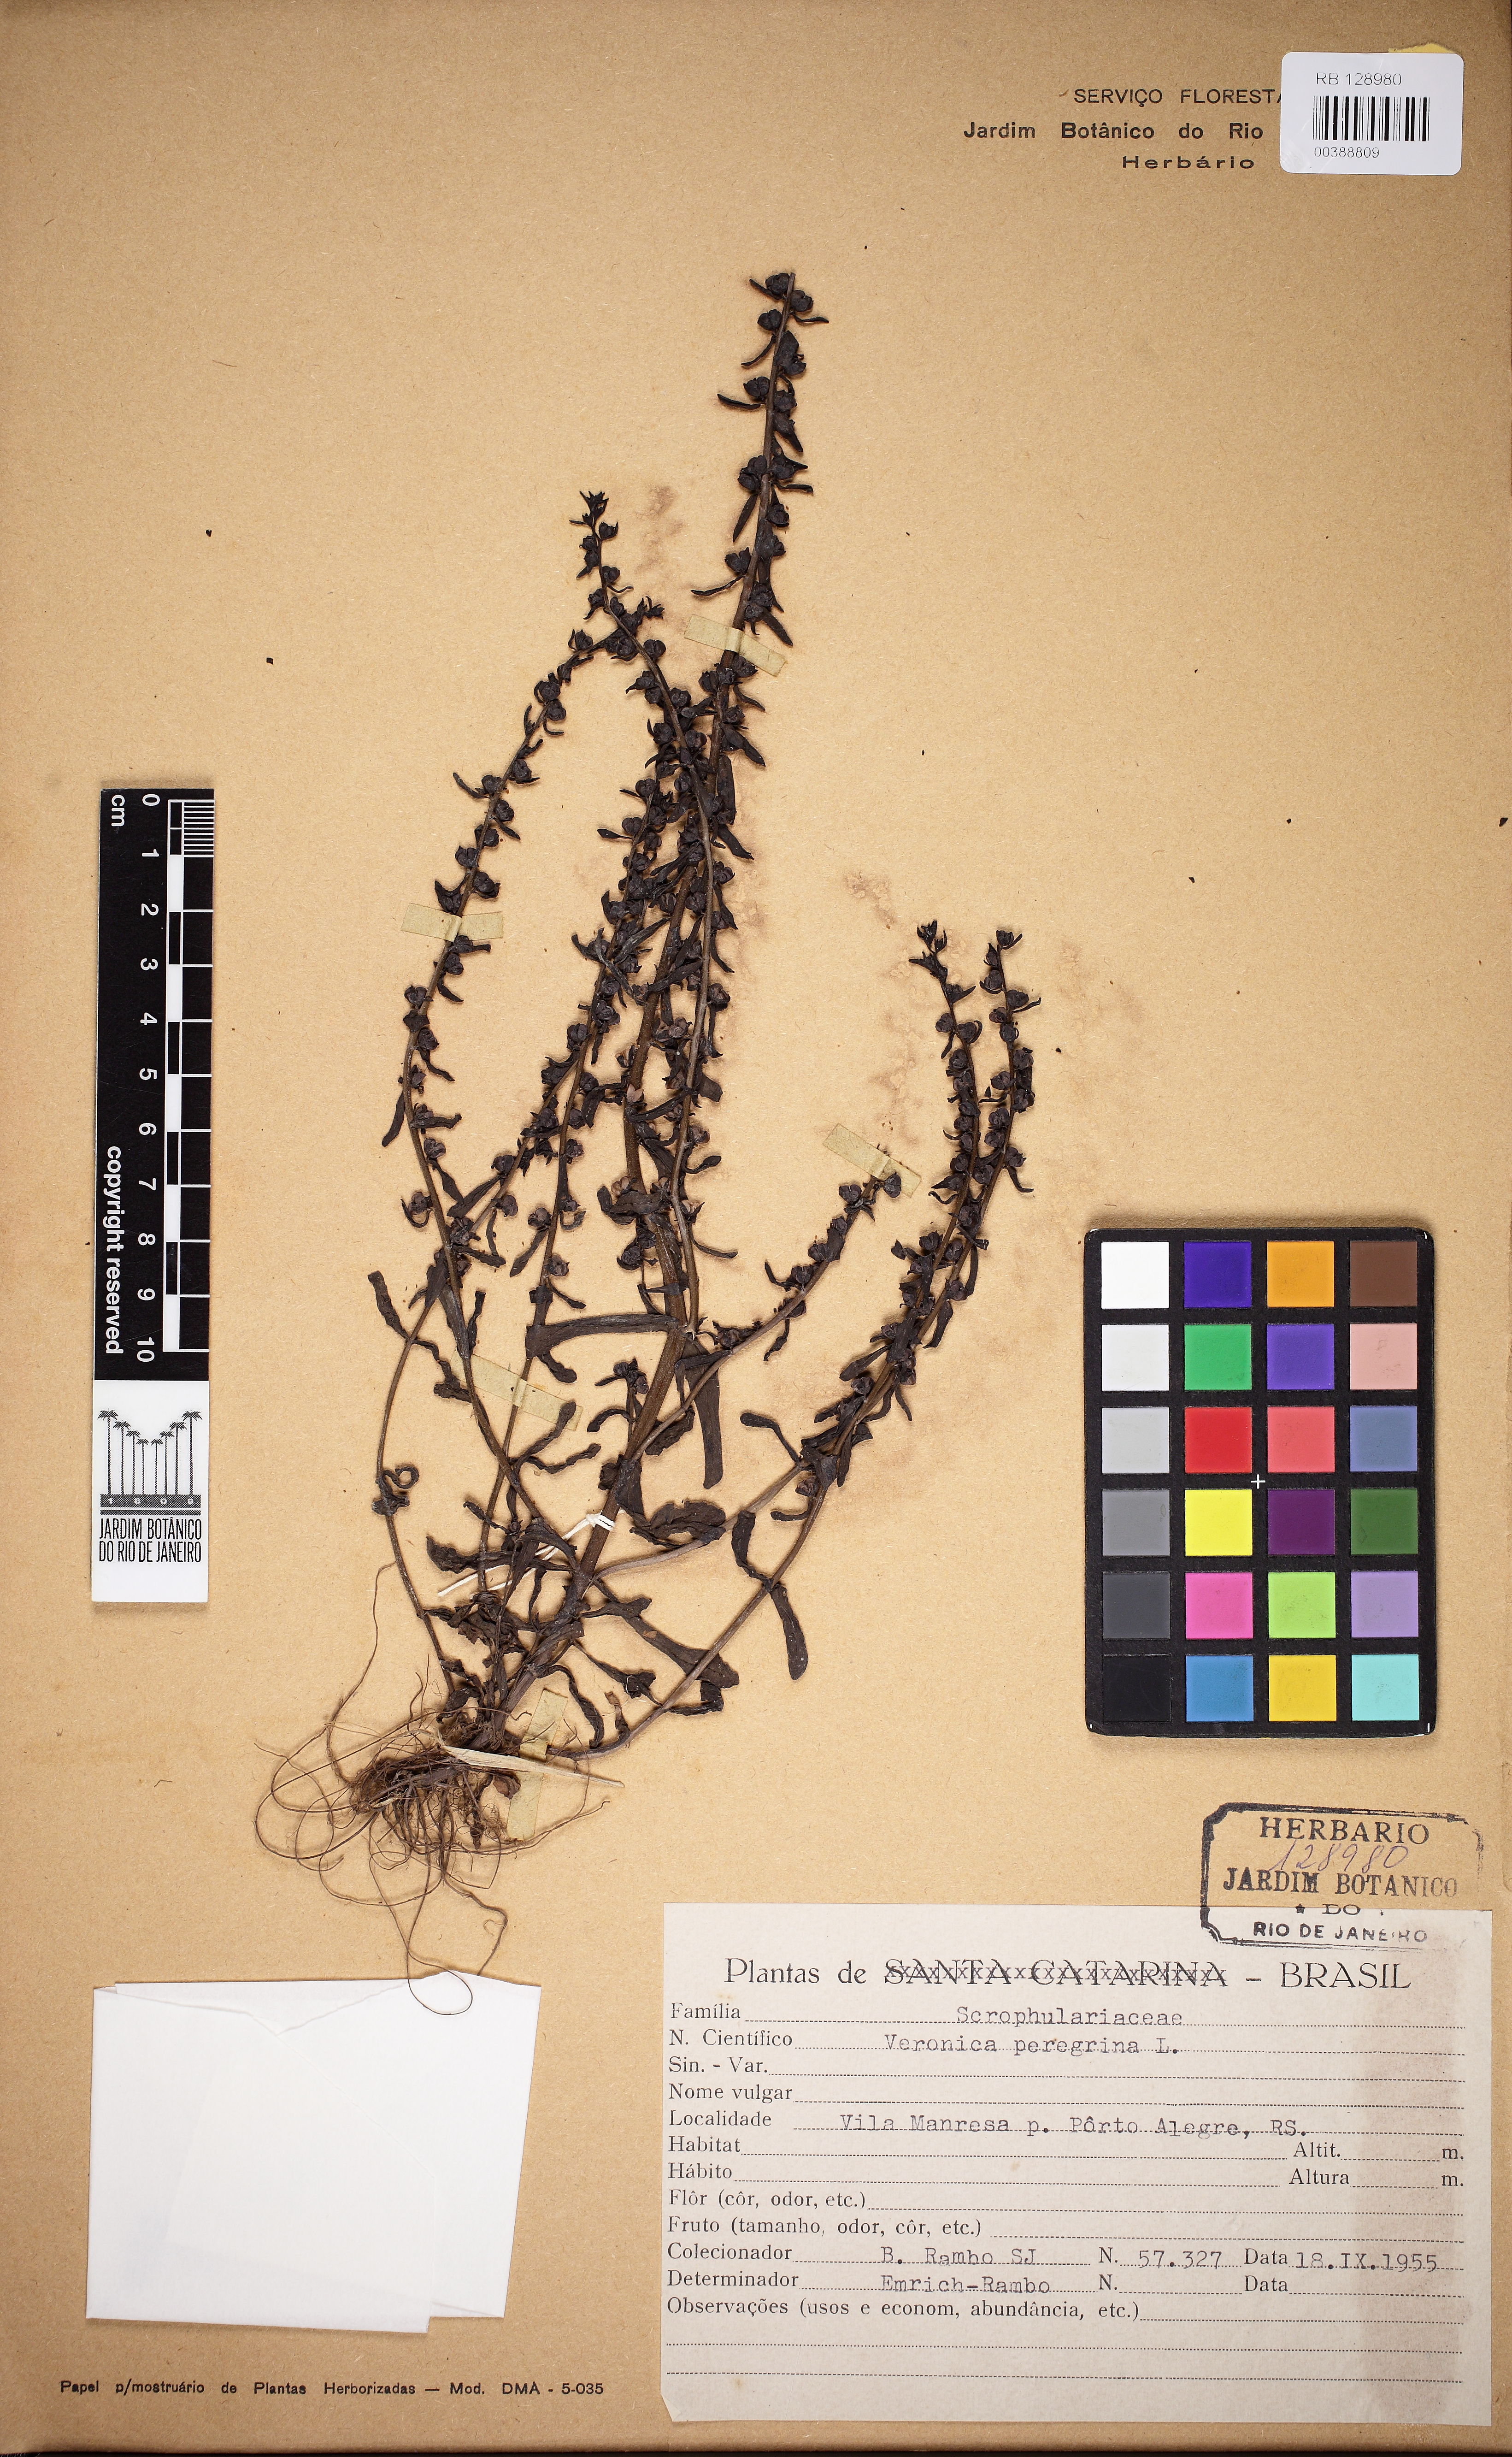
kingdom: Plantae
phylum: Tracheophyta
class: Magnoliopsida
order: Lamiales
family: Plantaginaceae
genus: Veronica
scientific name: Veronica peregrina
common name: Neckweed
